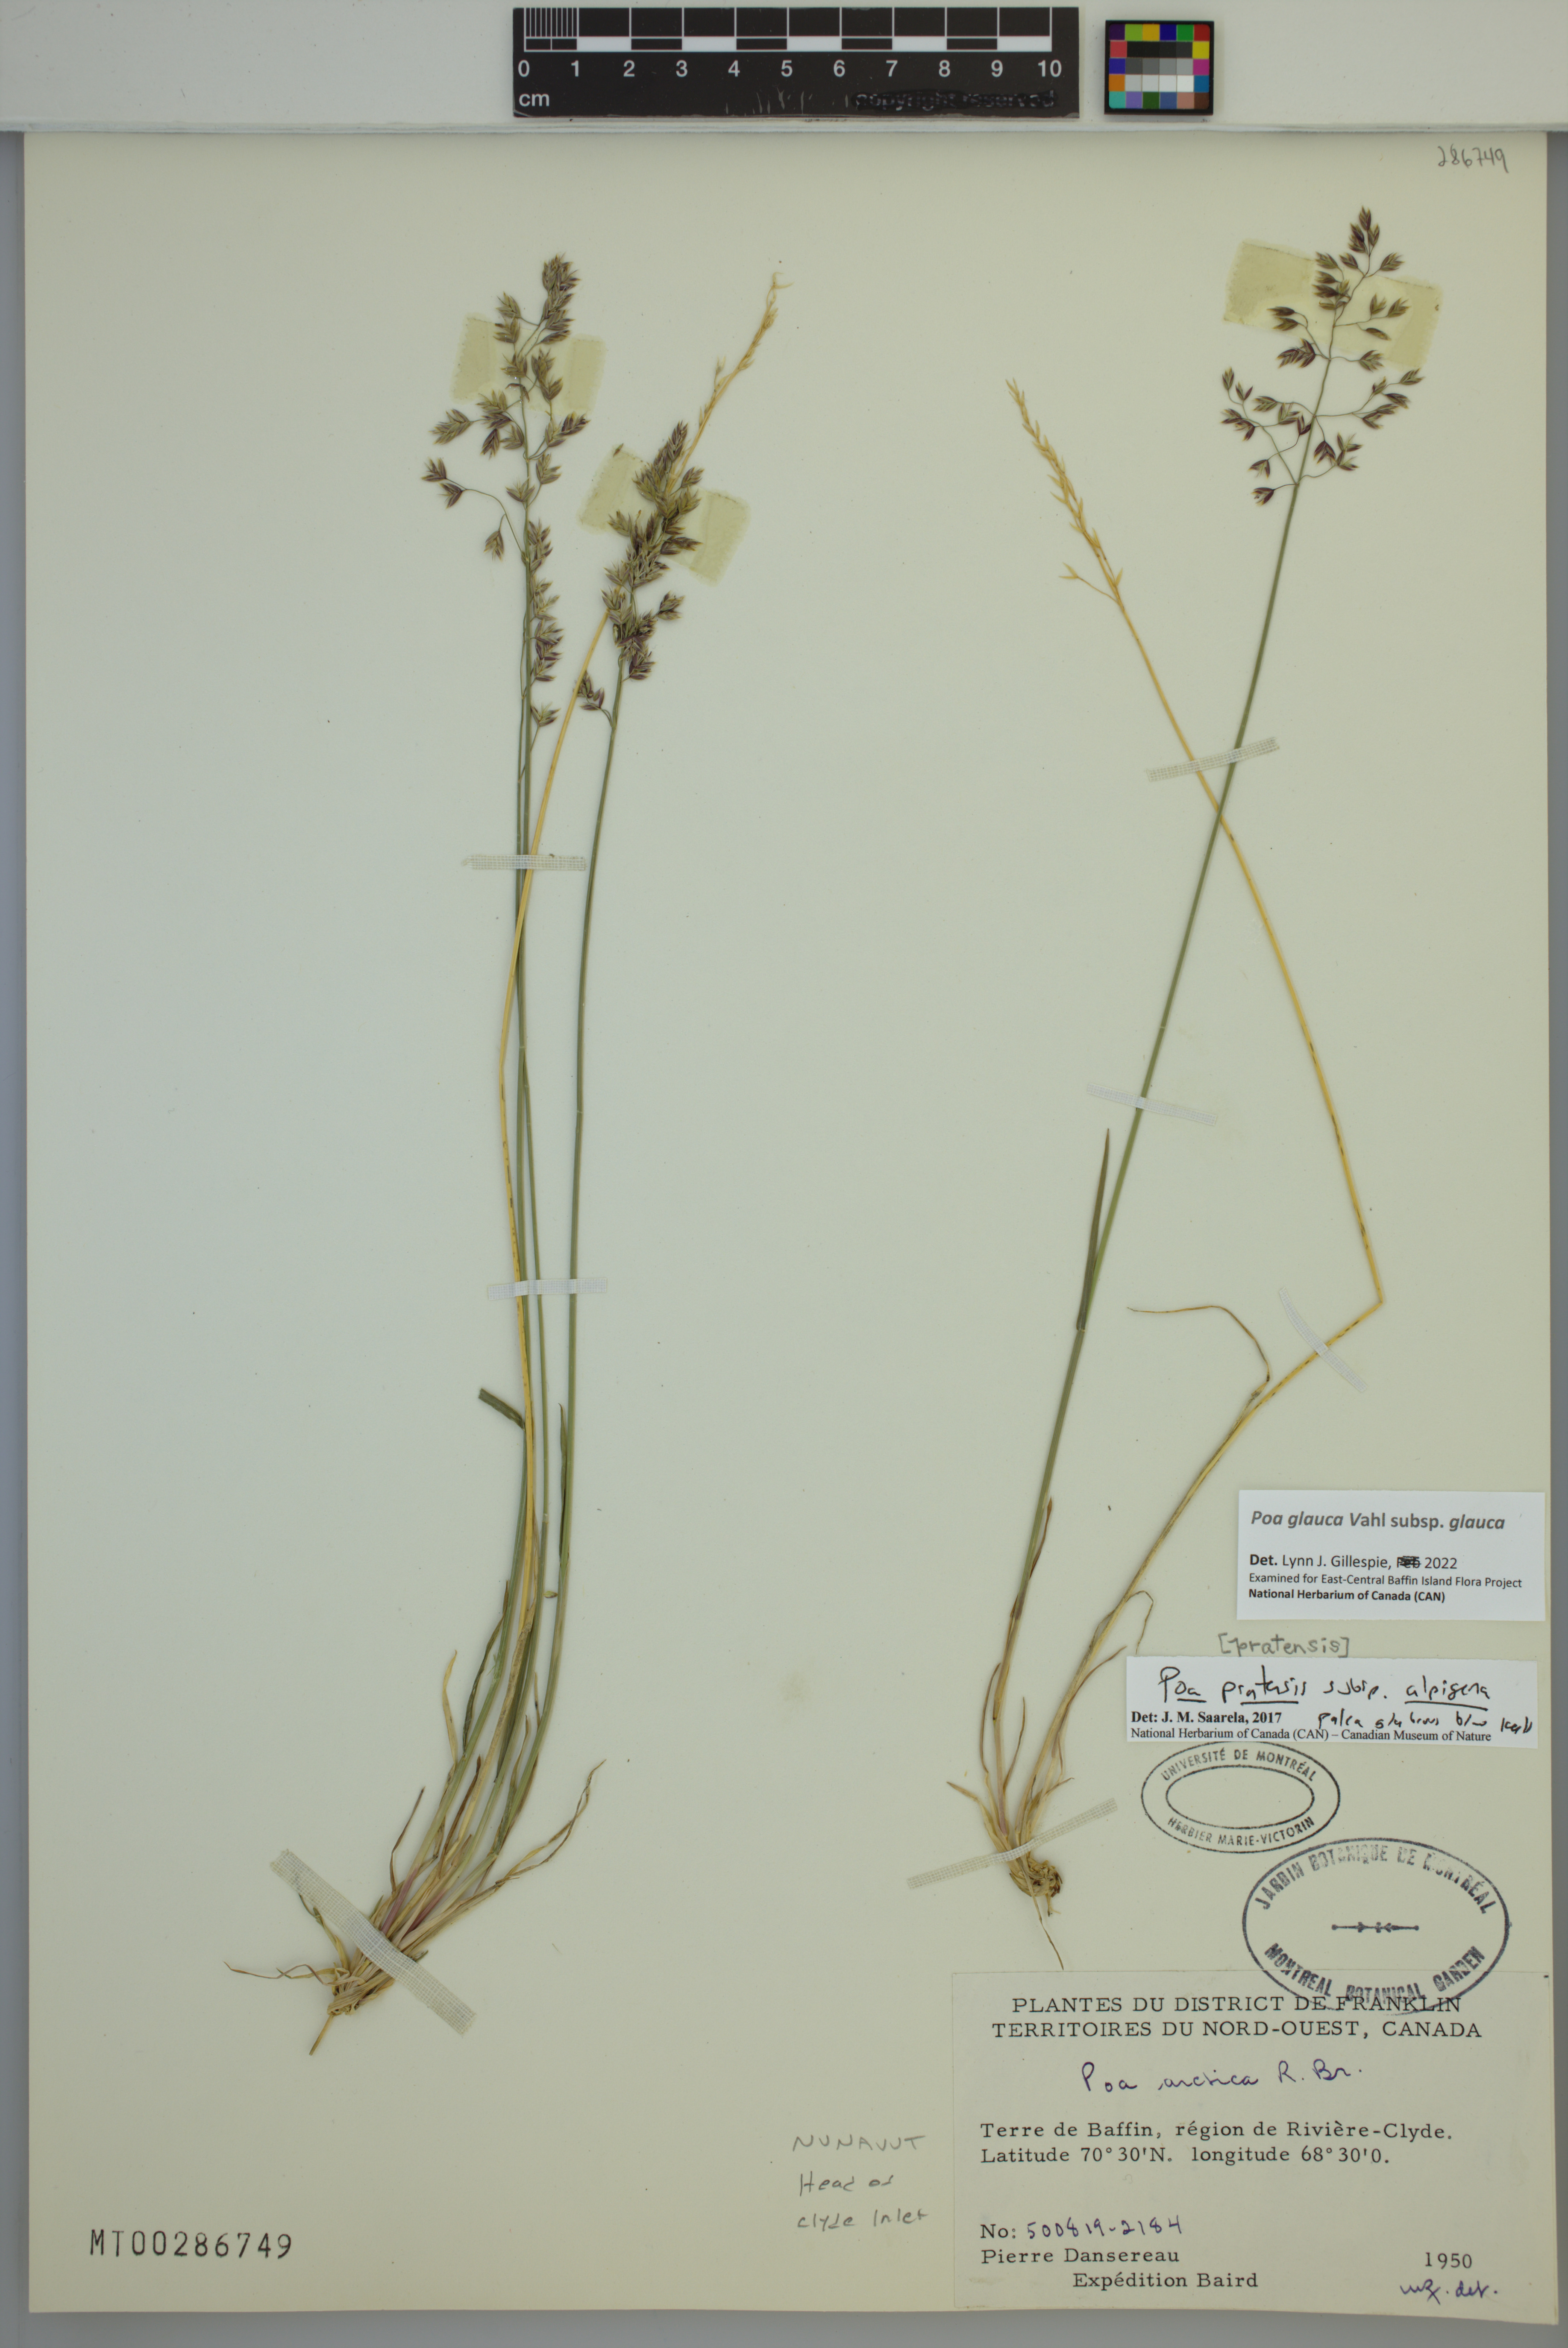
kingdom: Plantae
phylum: Tracheophyta
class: Liliopsida
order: Poales
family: Poaceae
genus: Poa
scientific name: Poa glauca
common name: Glaucous bluegrass
